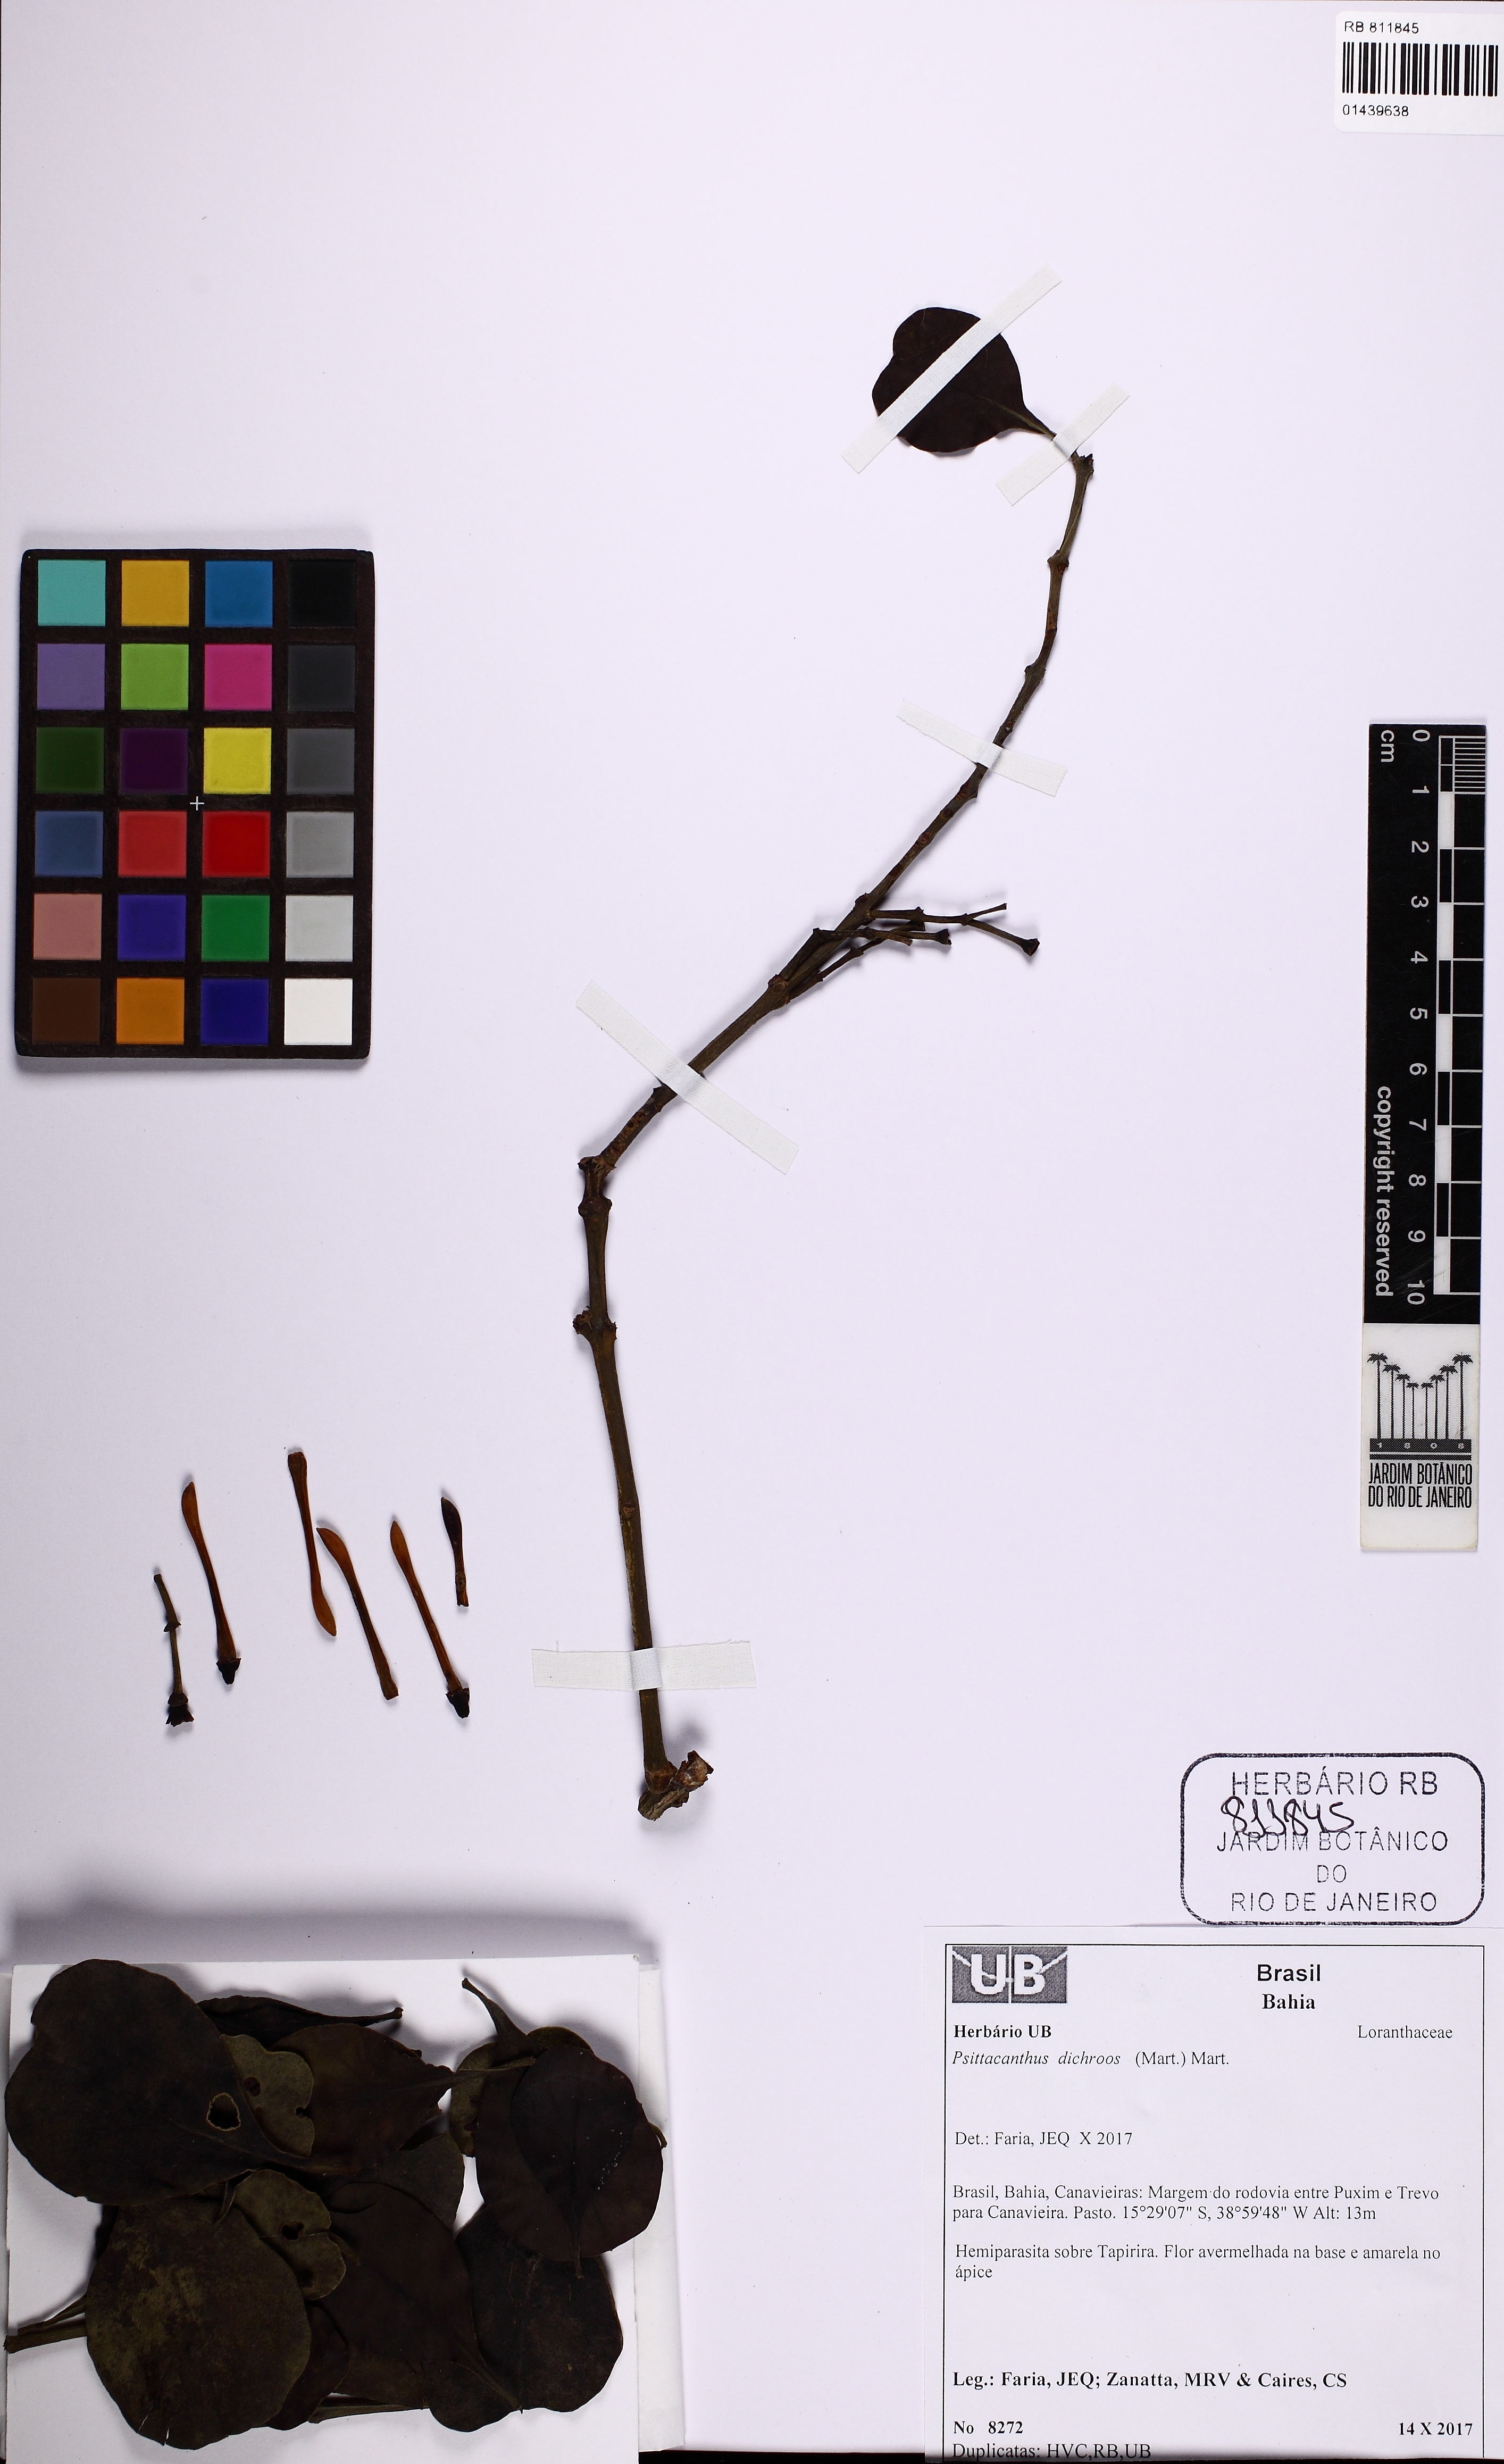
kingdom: Plantae
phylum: Tracheophyta
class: Magnoliopsida
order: Santalales
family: Loranthaceae
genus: Psittacanthus
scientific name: Psittacanthus dichroos
